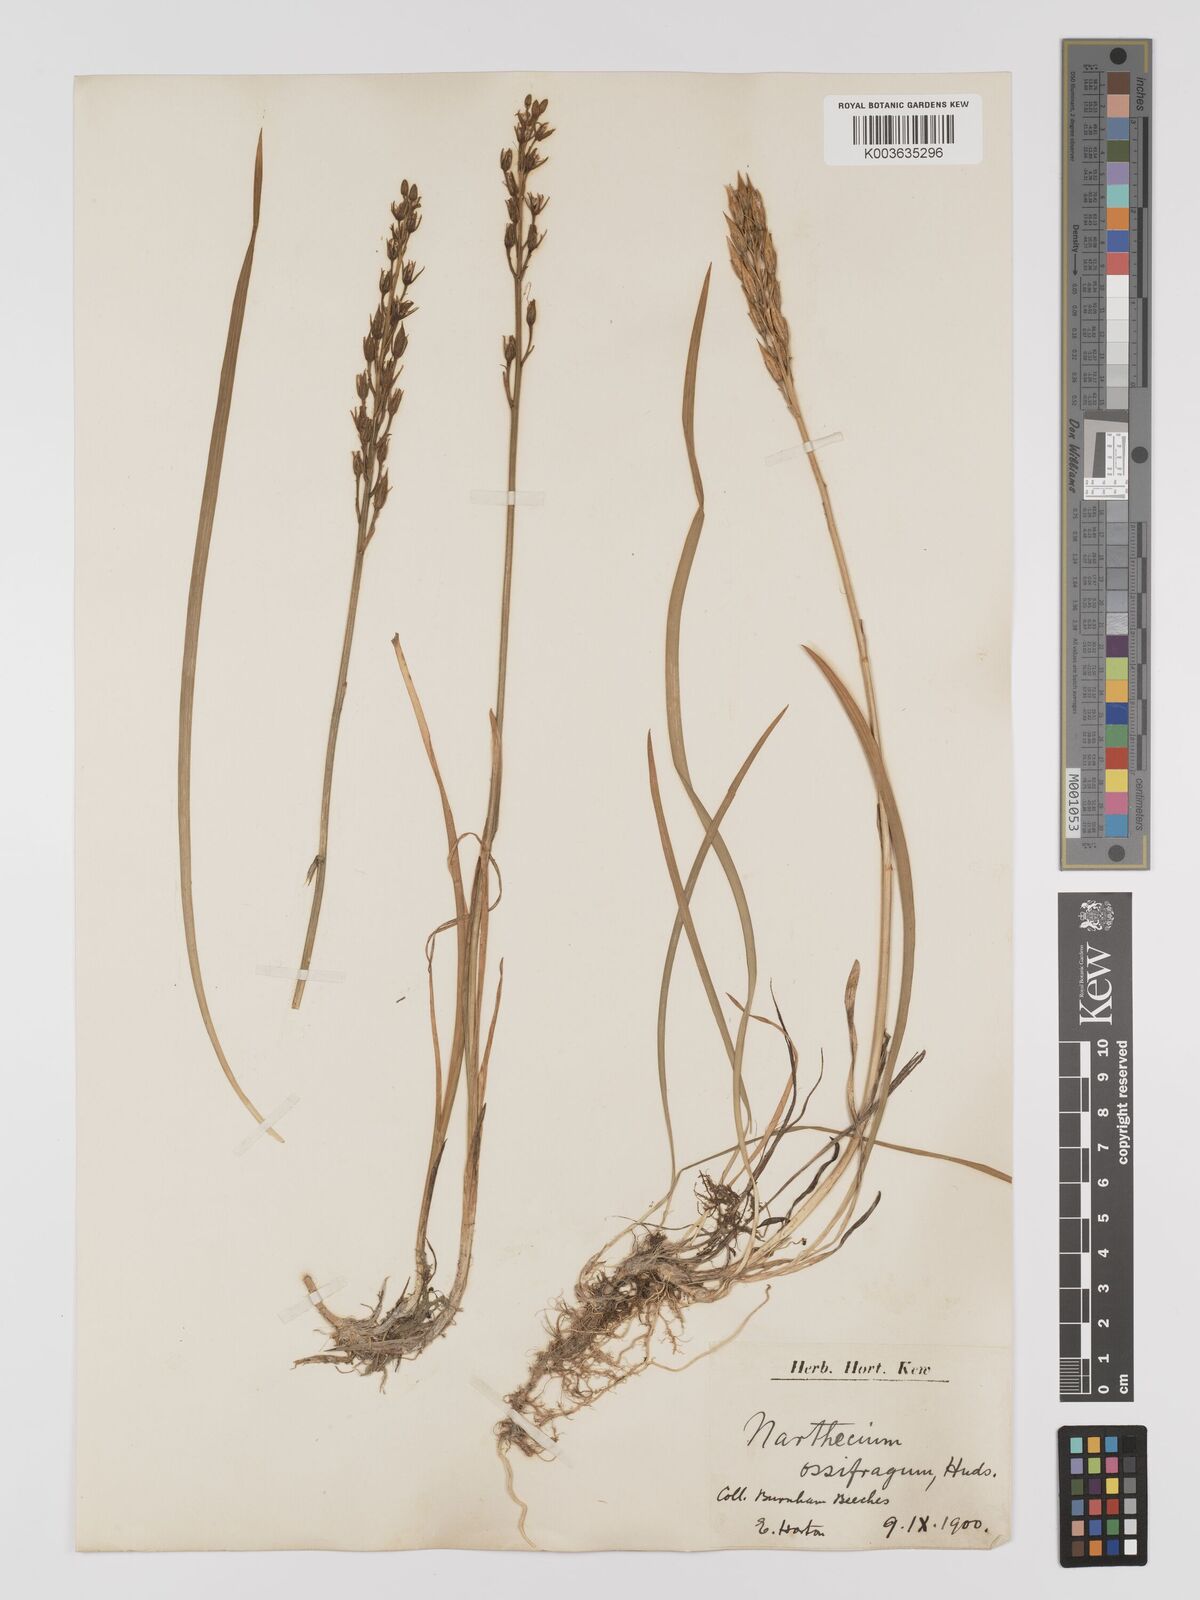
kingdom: Plantae
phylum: Tracheophyta
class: Liliopsida
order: Dioscoreales
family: Nartheciaceae
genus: Narthecium
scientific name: Narthecium ossifragum
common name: Bog asphodel
